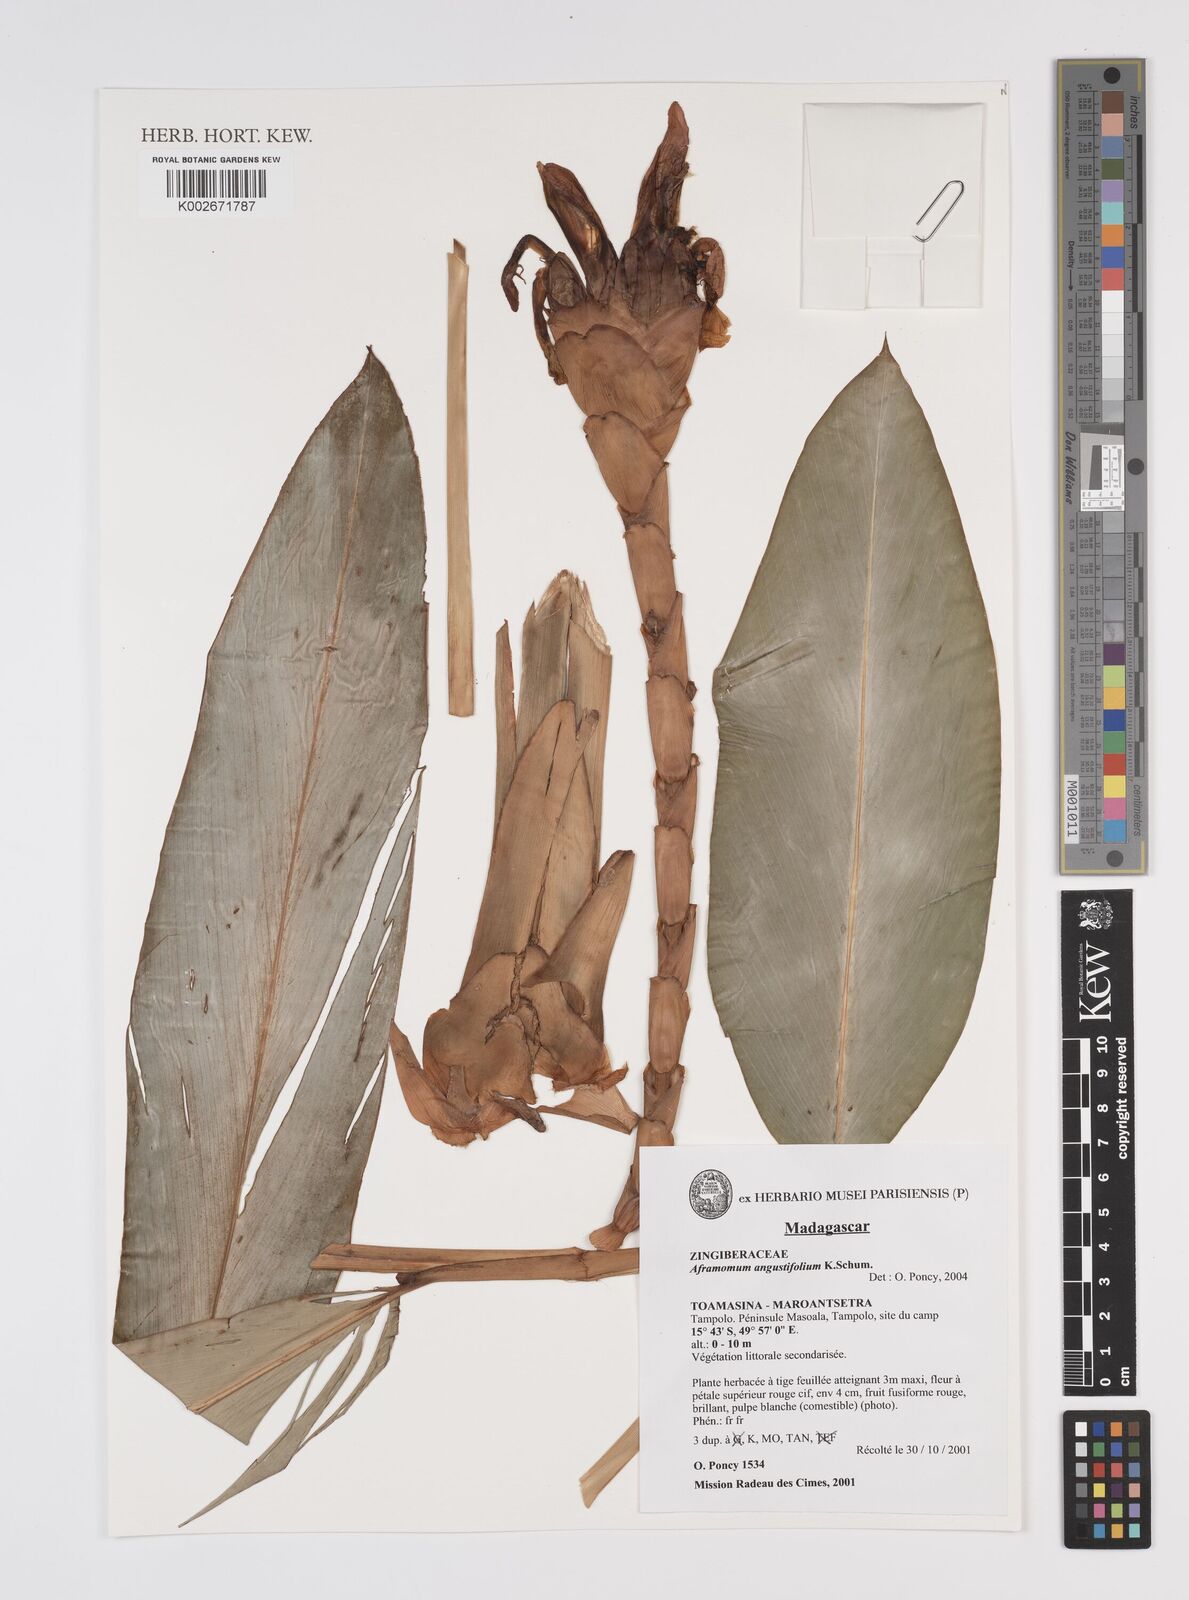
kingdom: Plantae
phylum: Tracheophyta
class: Liliopsida
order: Zingiberales
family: Zingiberaceae
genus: Aframomum
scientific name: Aframomum angustifolium
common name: Guinea grains
